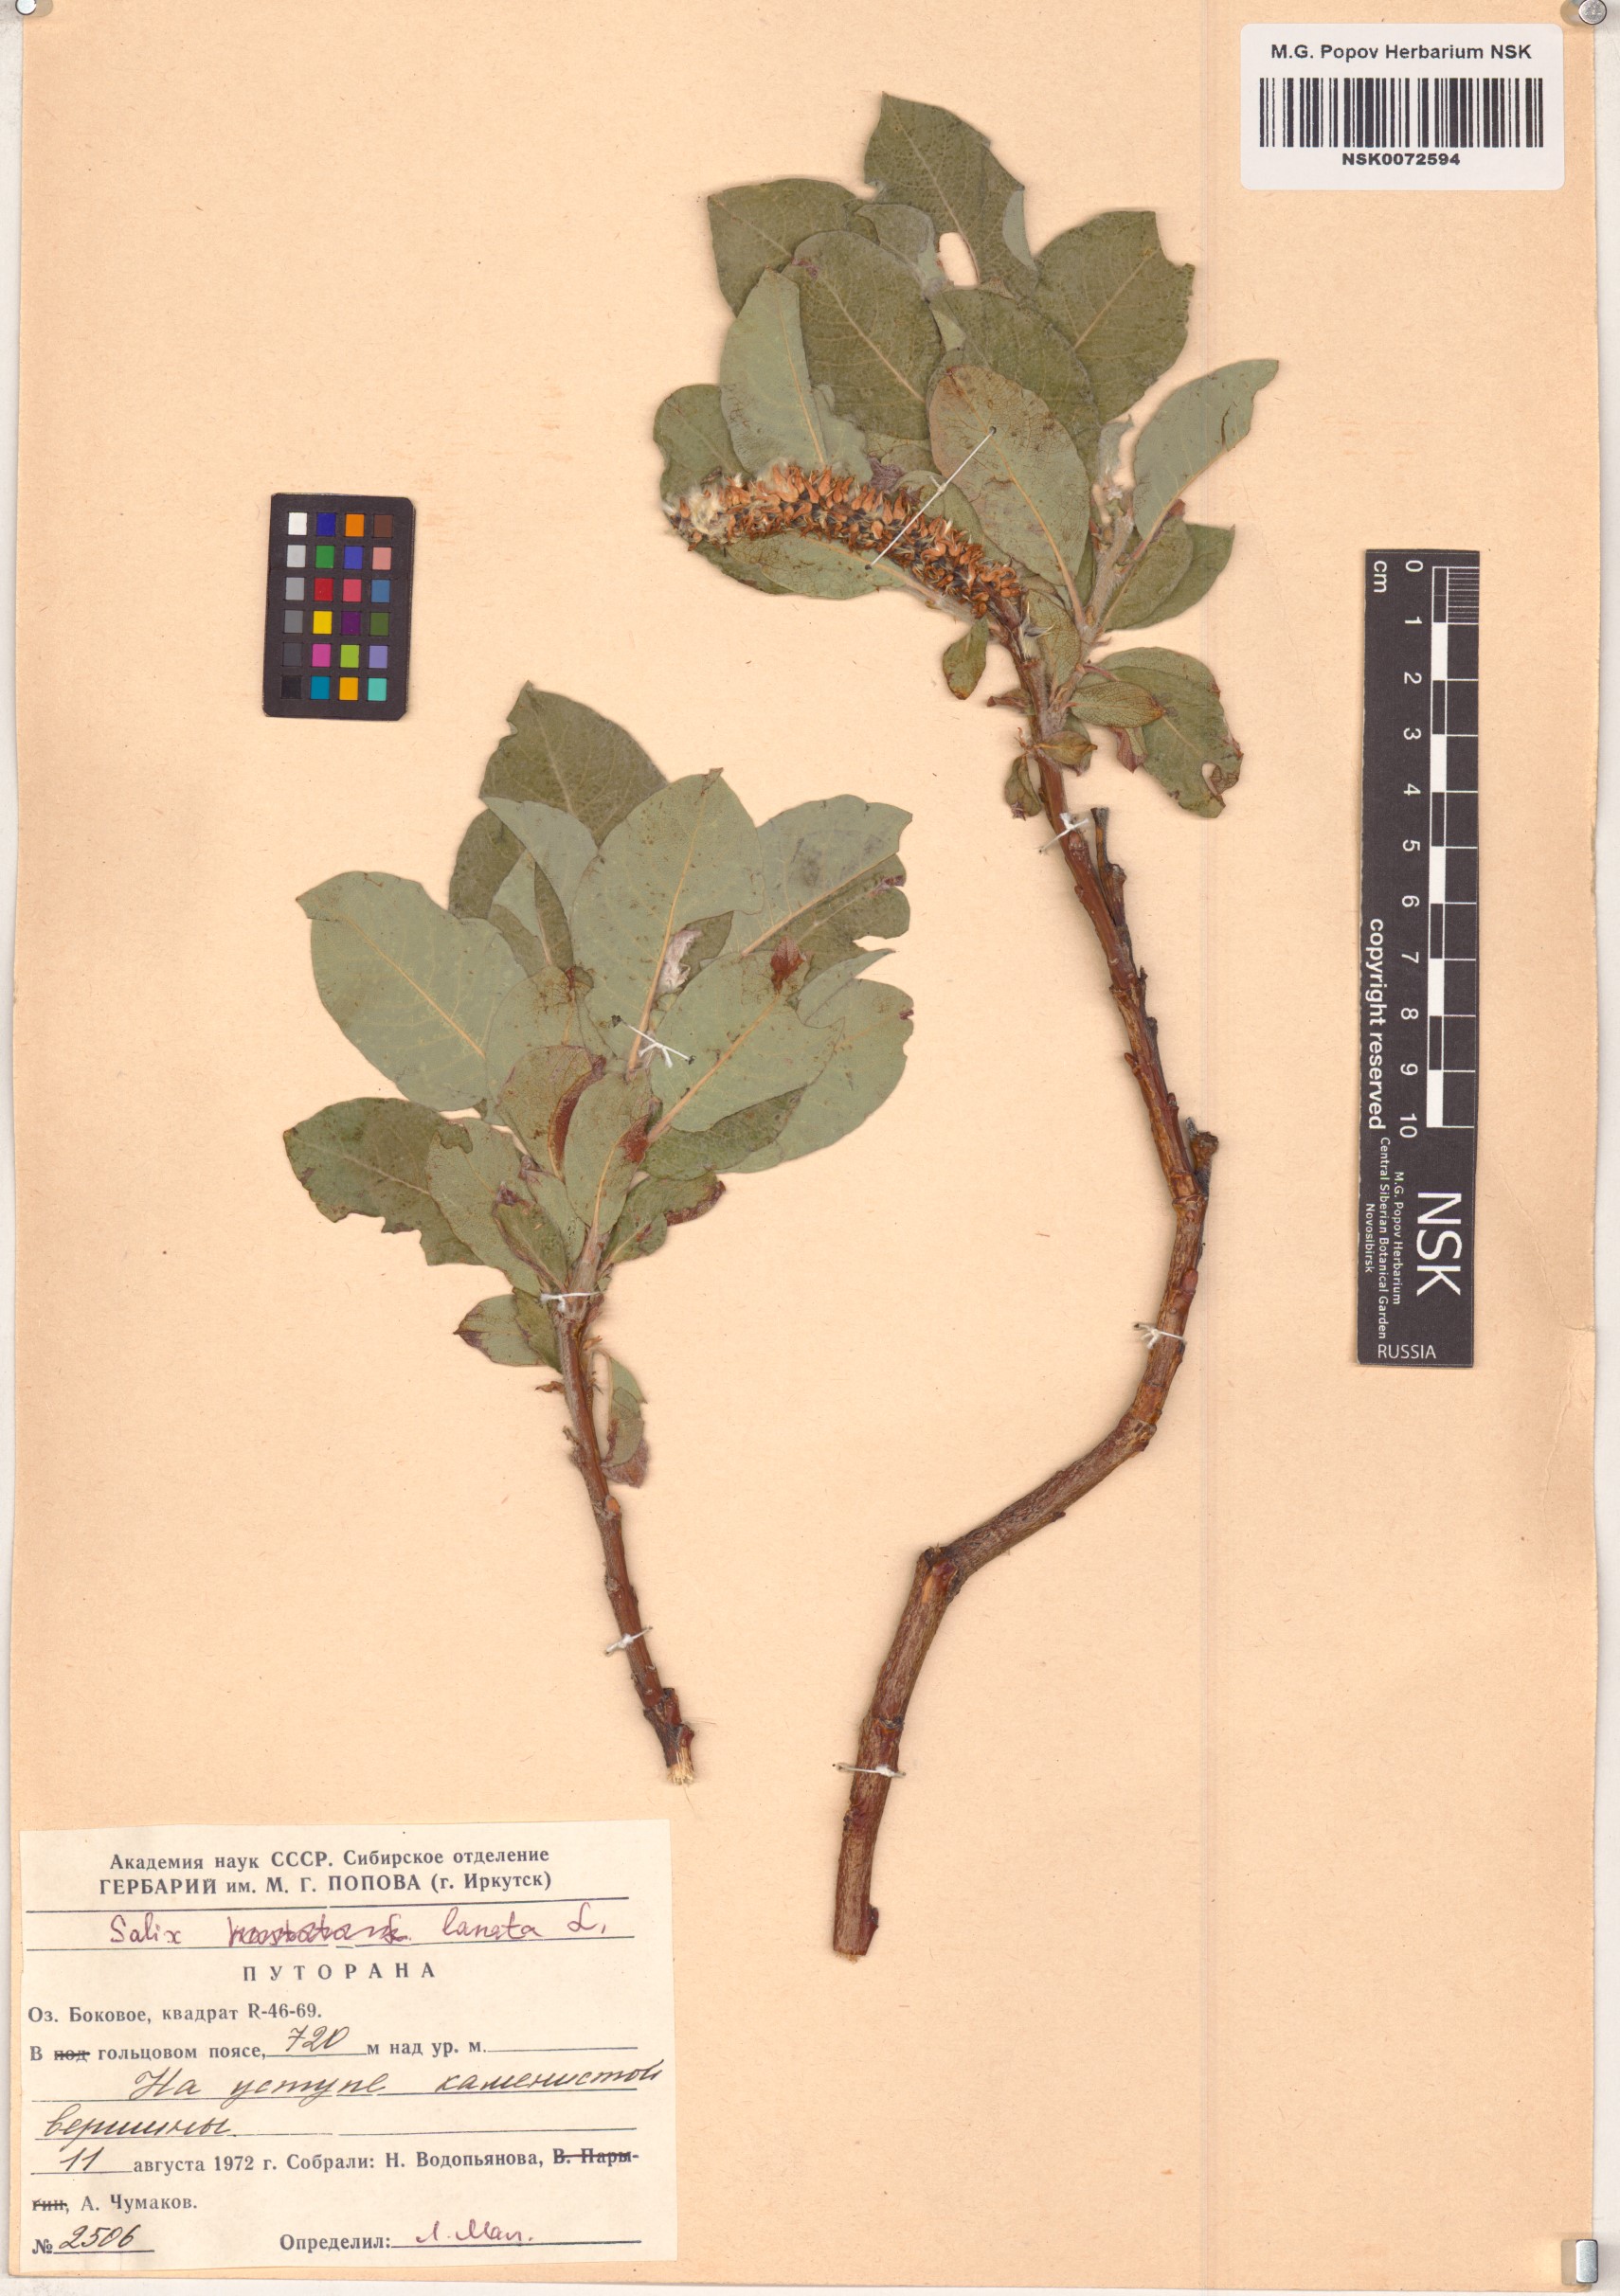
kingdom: Plantae
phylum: Tracheophyta
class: Magnoliopsida
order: Malpighiales
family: Salicaceae
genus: Salix
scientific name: Salix lanata
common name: Woolly willow
